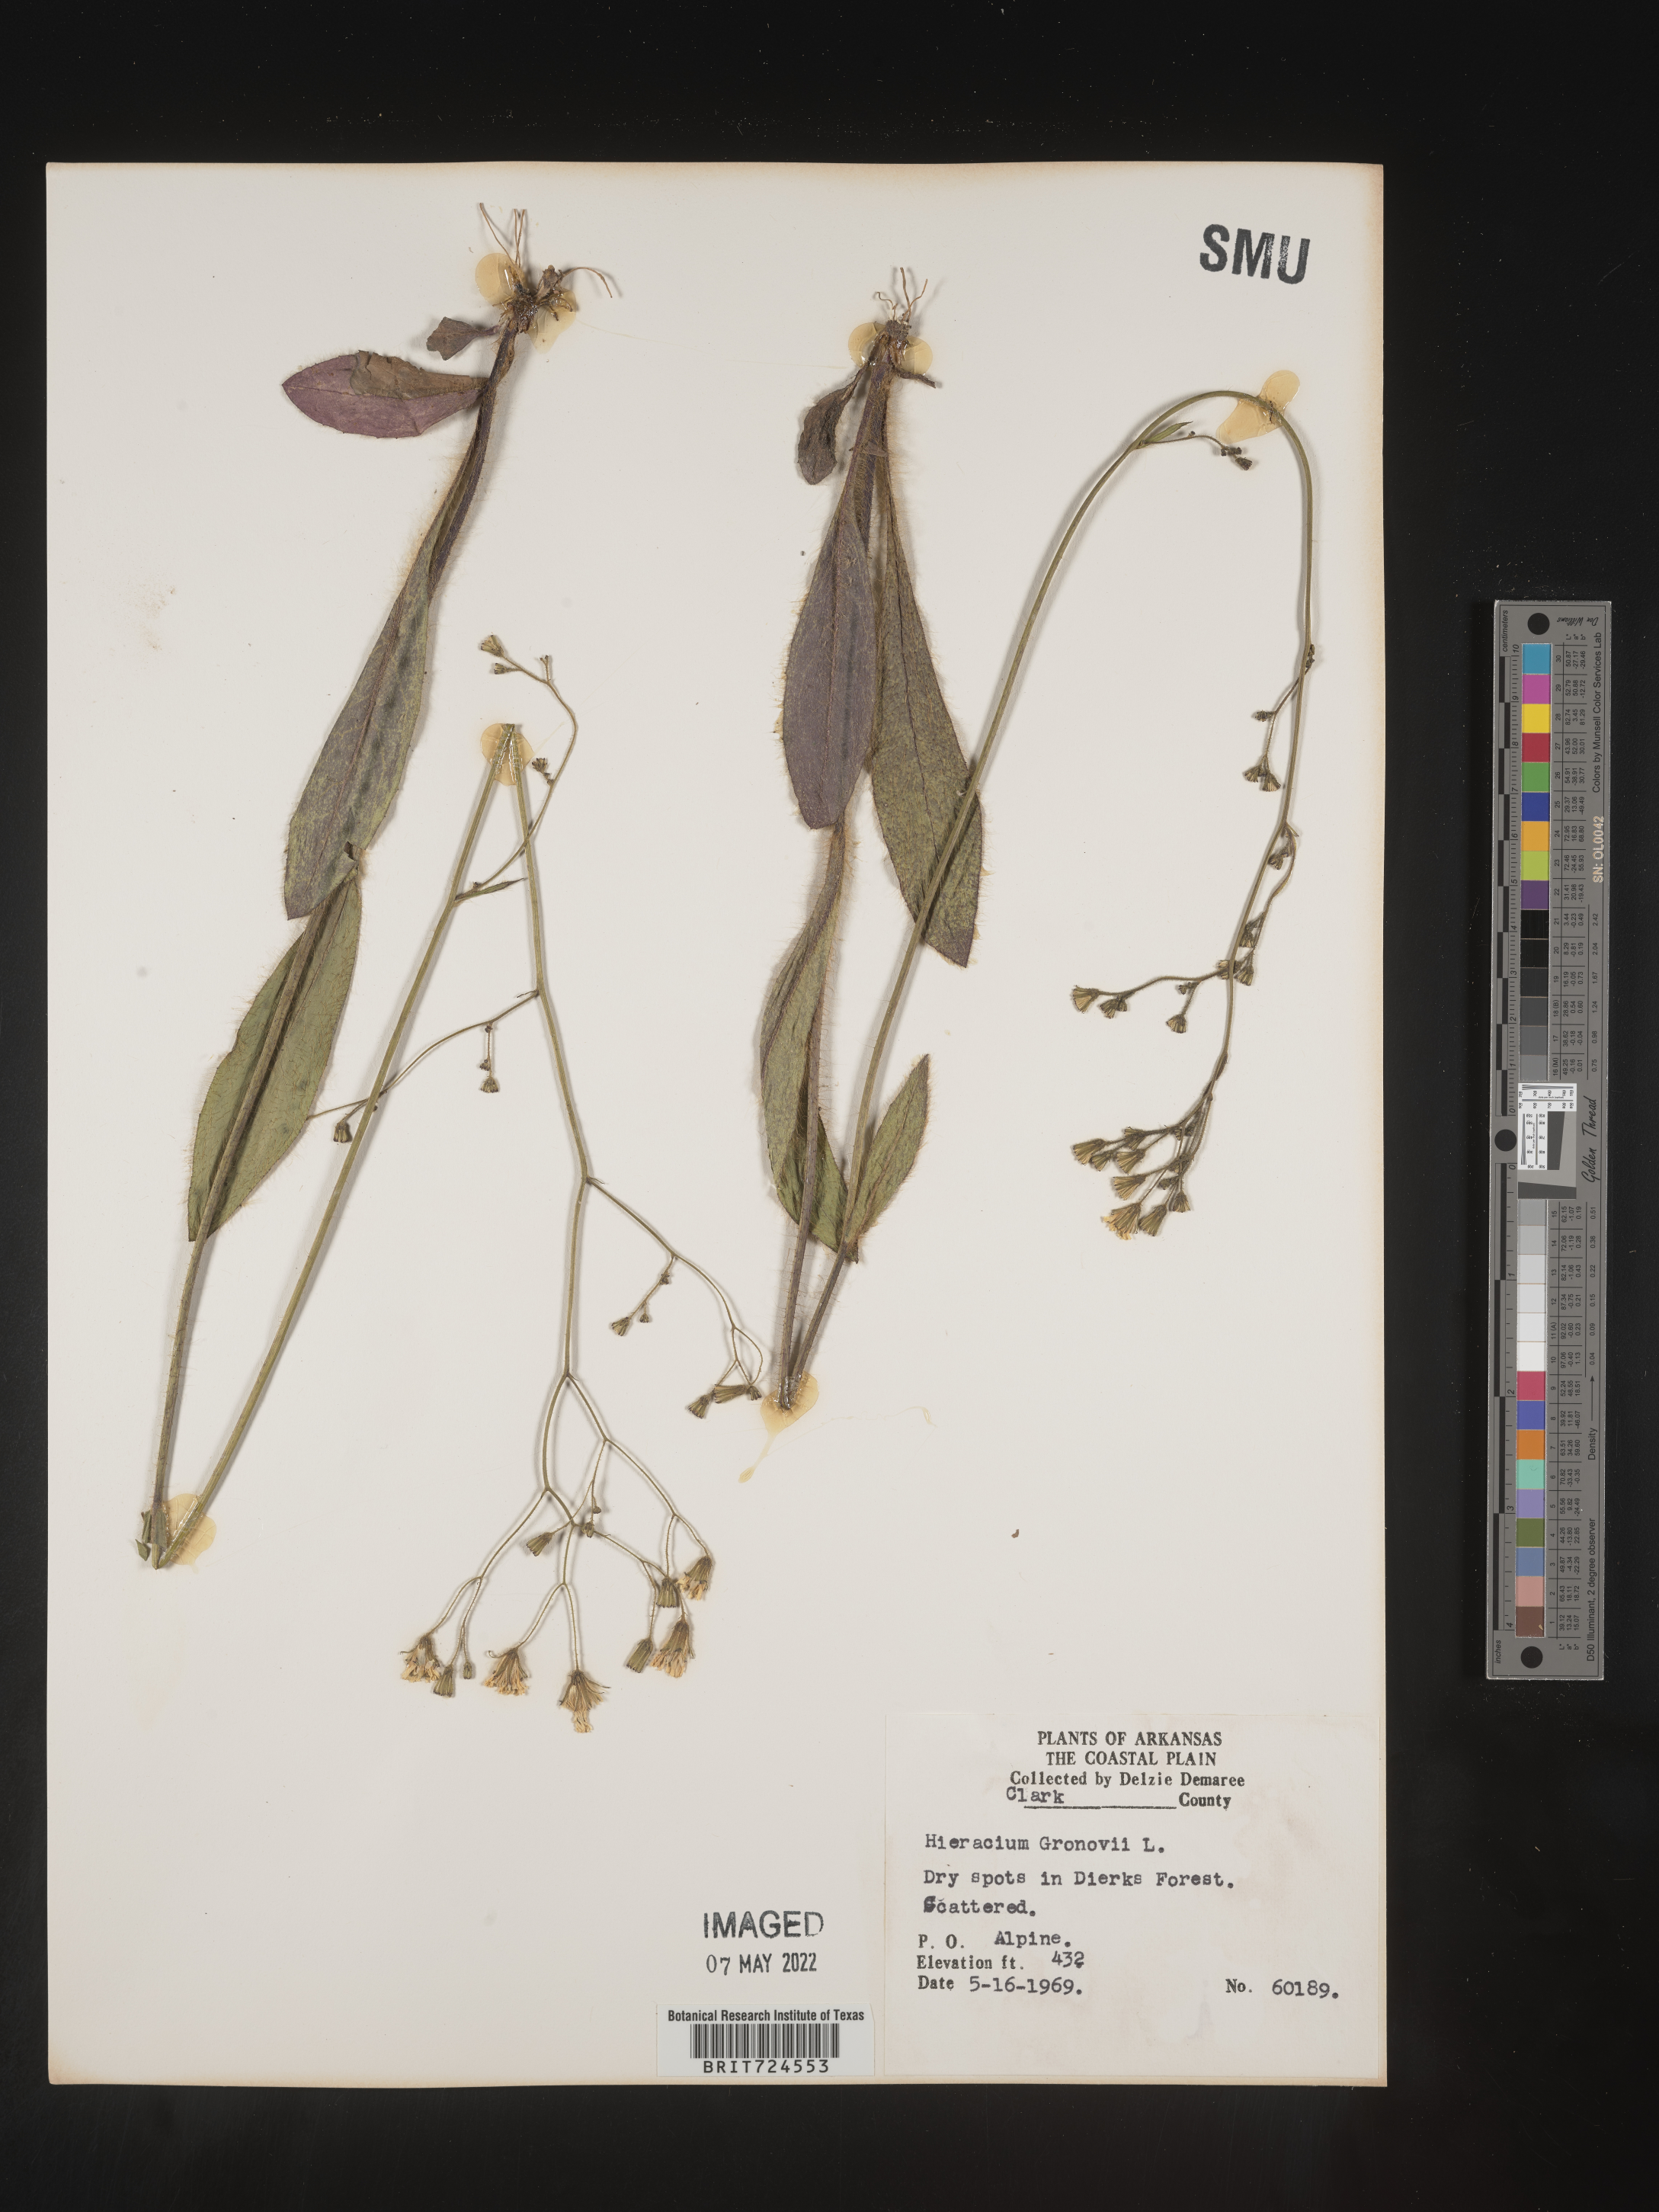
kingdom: Plantae
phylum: Tracheophyta
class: Magnoliopsida
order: Asterales
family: Asteraceae
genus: Hieracium
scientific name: Hieracium gronovii
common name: Beaked hawkweed
